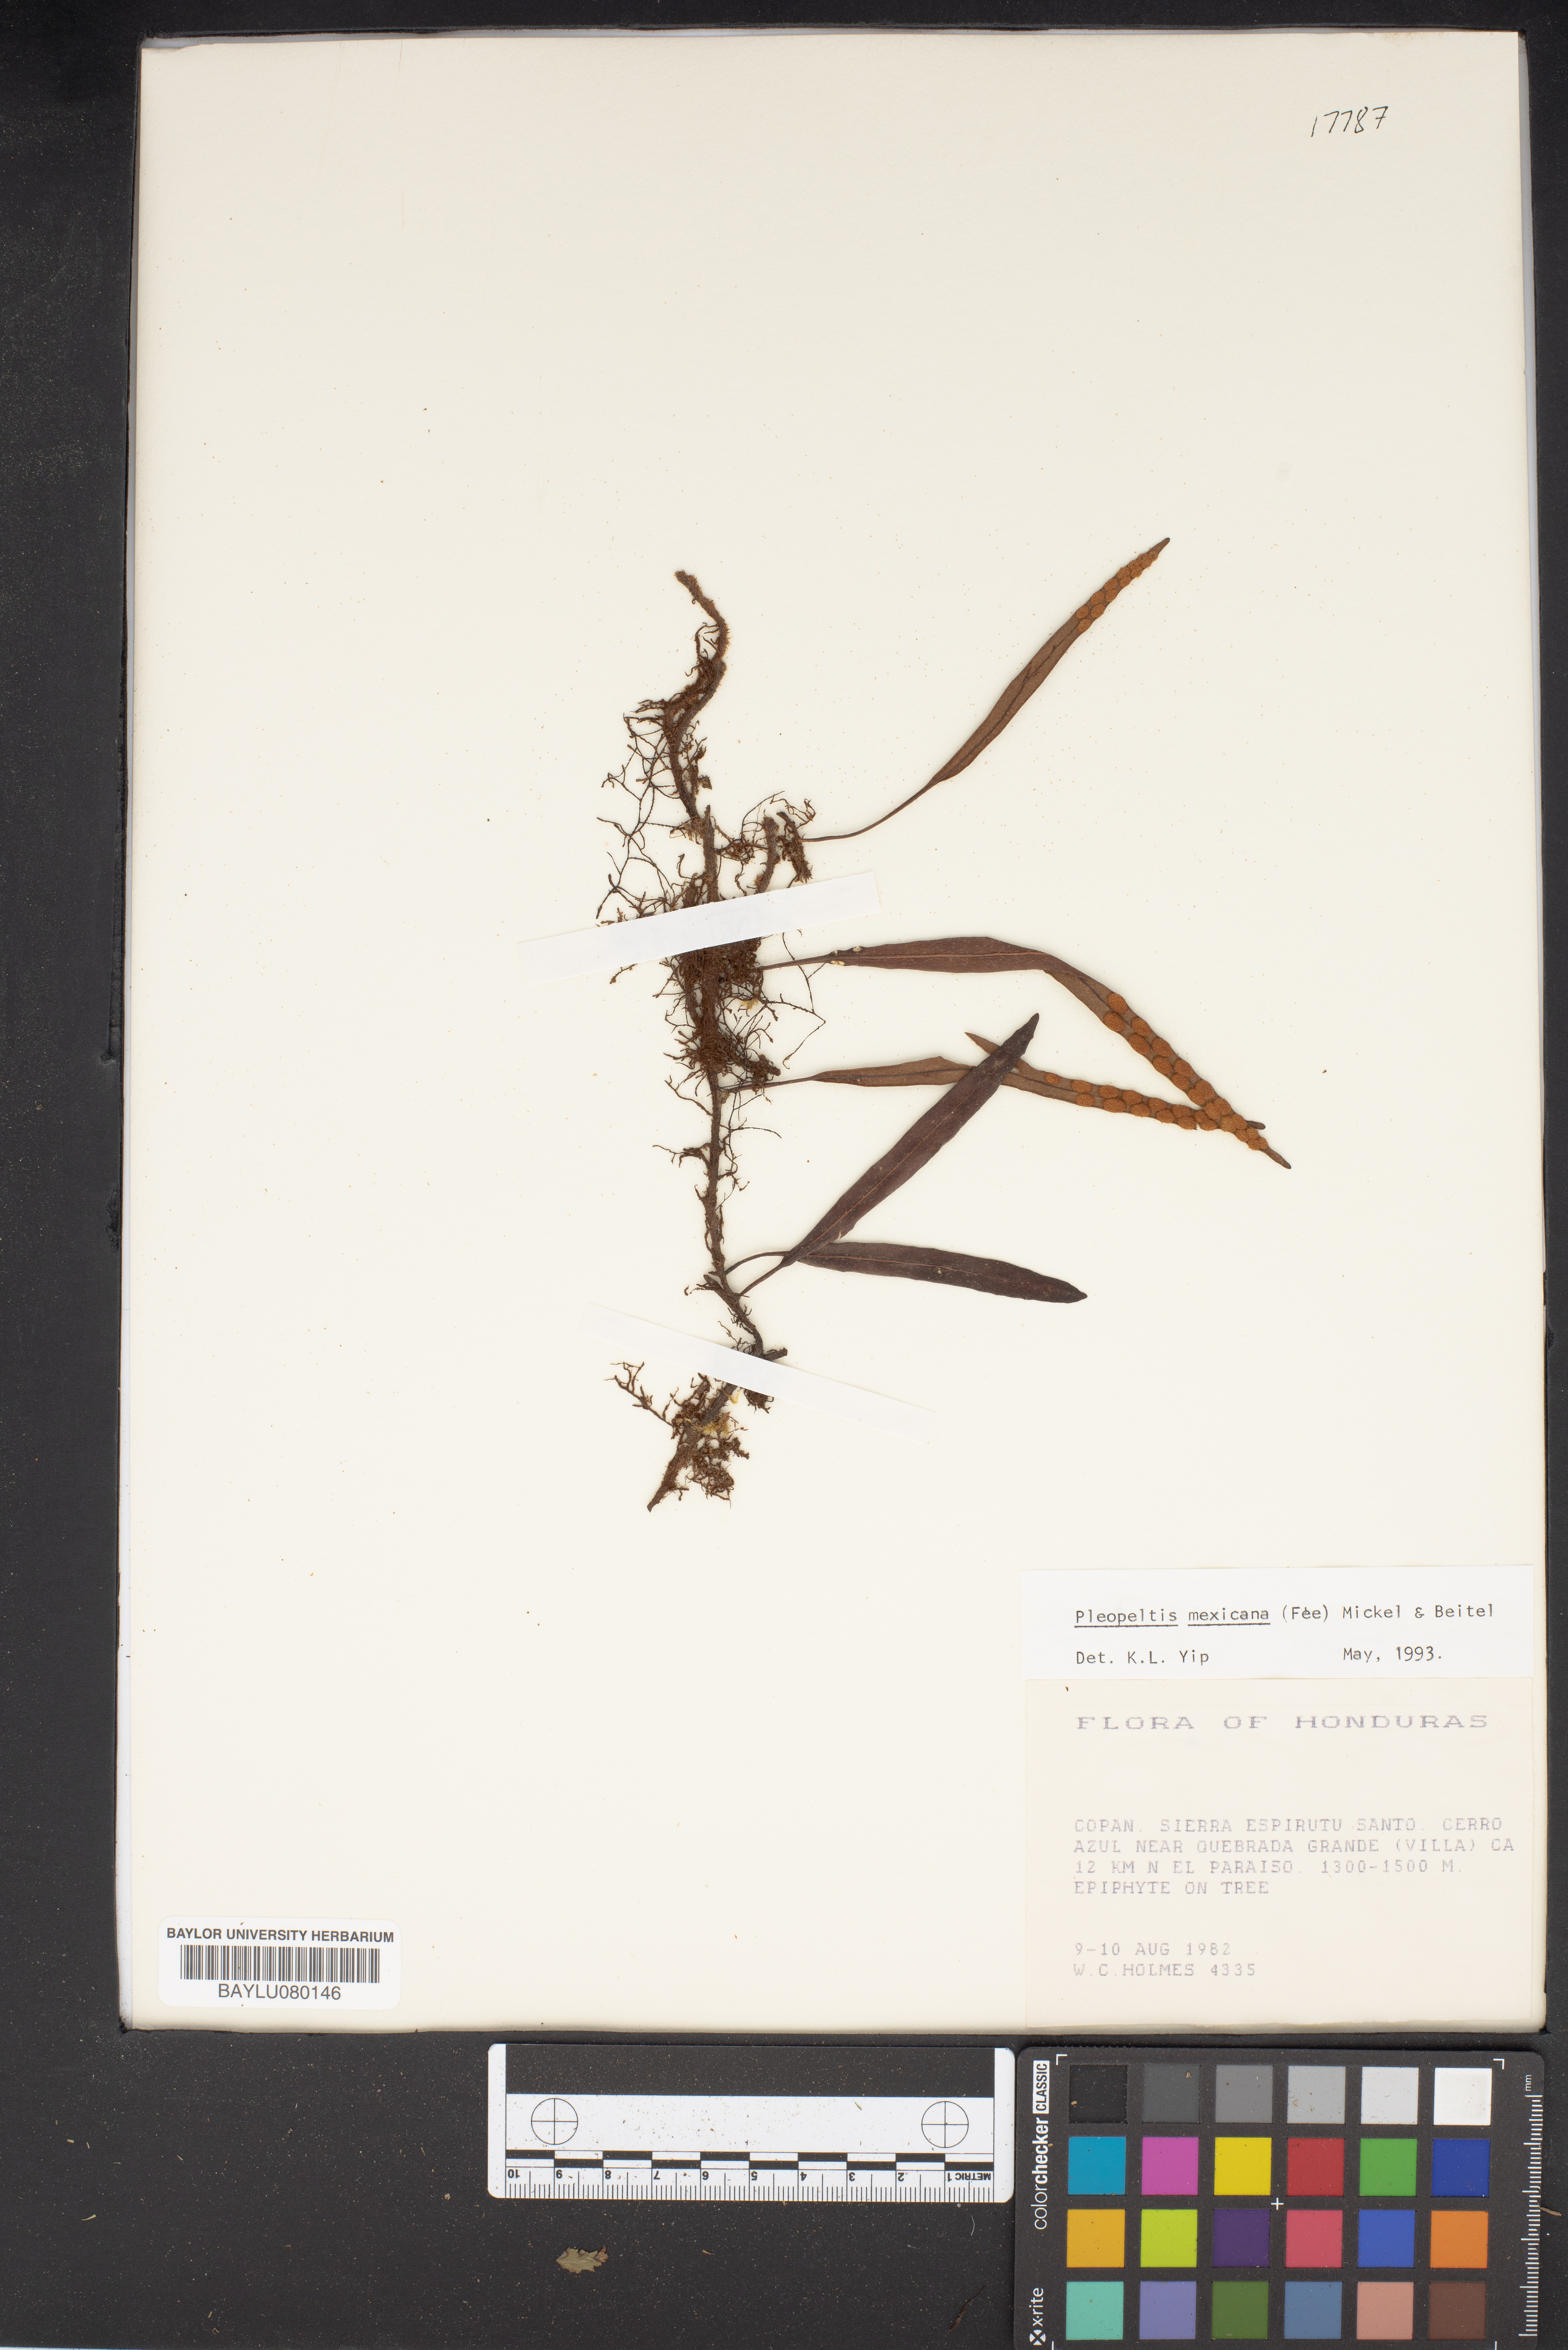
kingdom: Plantae
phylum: Tracheophyta
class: Polypodiopsida
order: Polypodiales
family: Polypodiaceae
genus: Pleopeltis
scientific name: Pleopeltis mexicana
